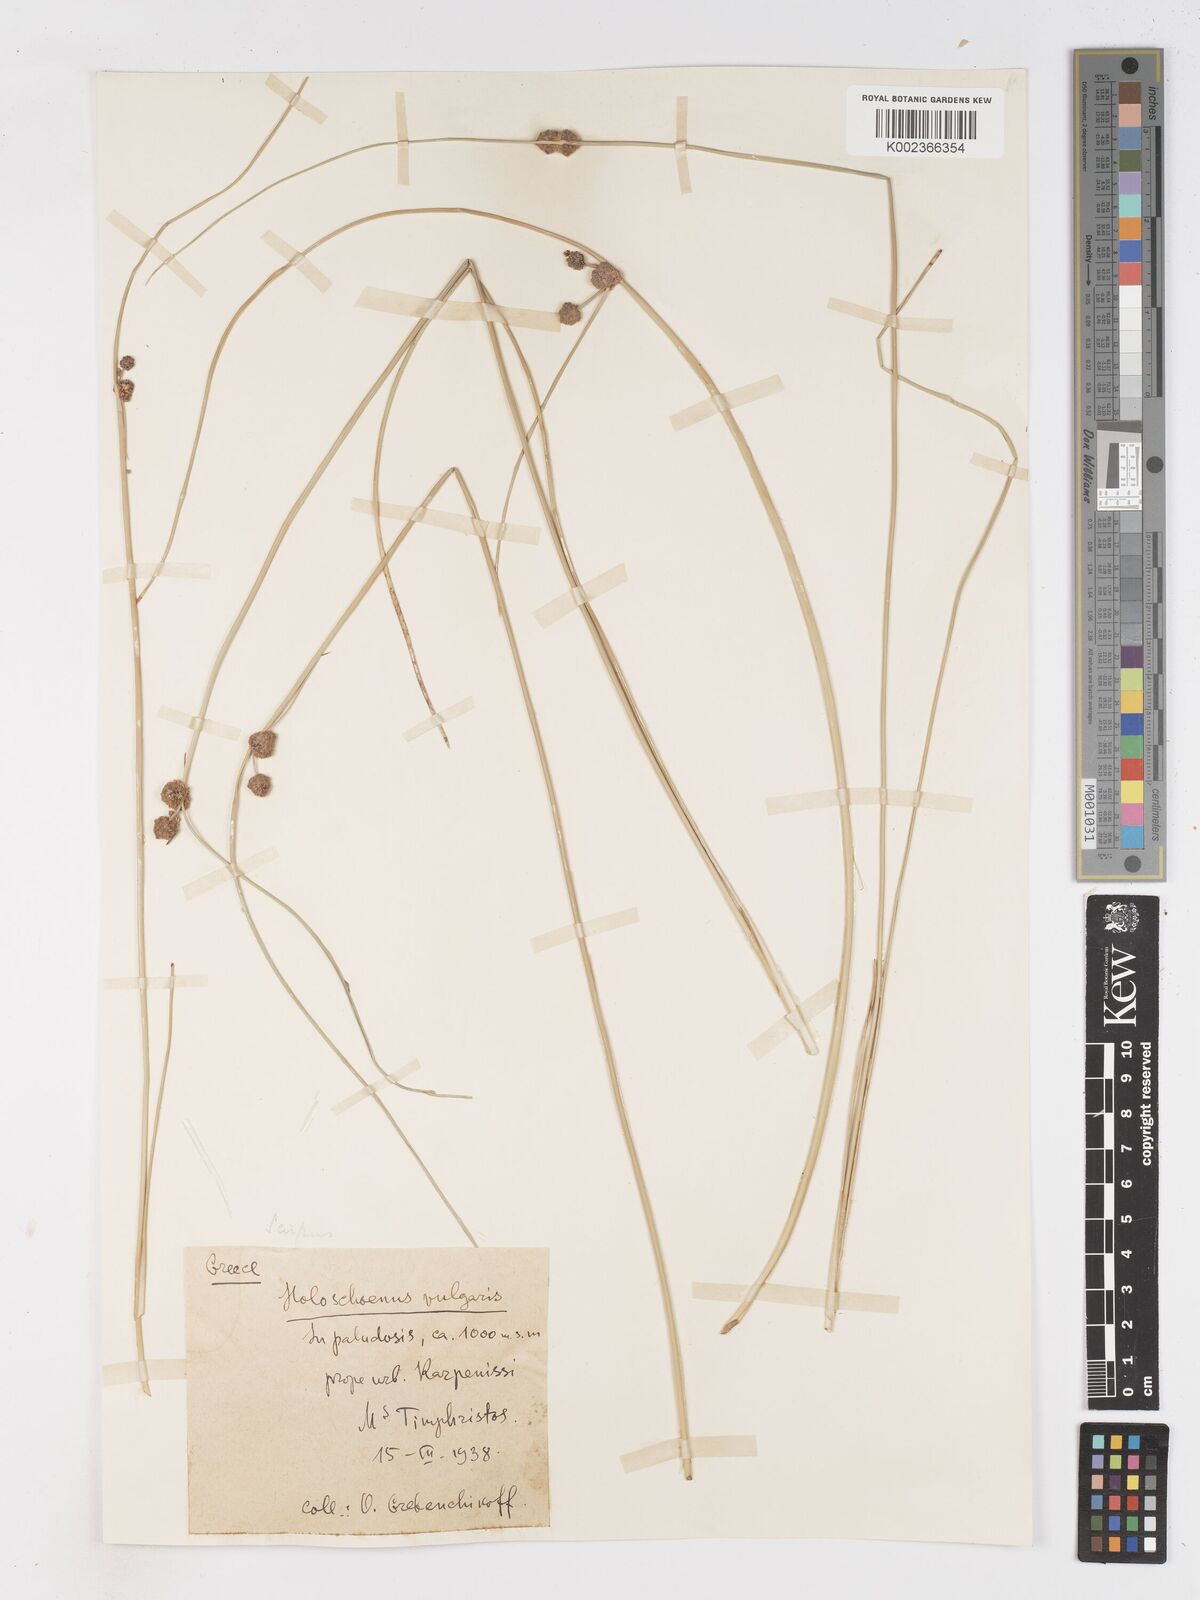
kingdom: Plantae
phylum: Tracheophyta
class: Liliopsida
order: Poales
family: Cyperaceae
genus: Scirpoides
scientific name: Scirpoides holoschoenus
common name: Round-headed club-rush
